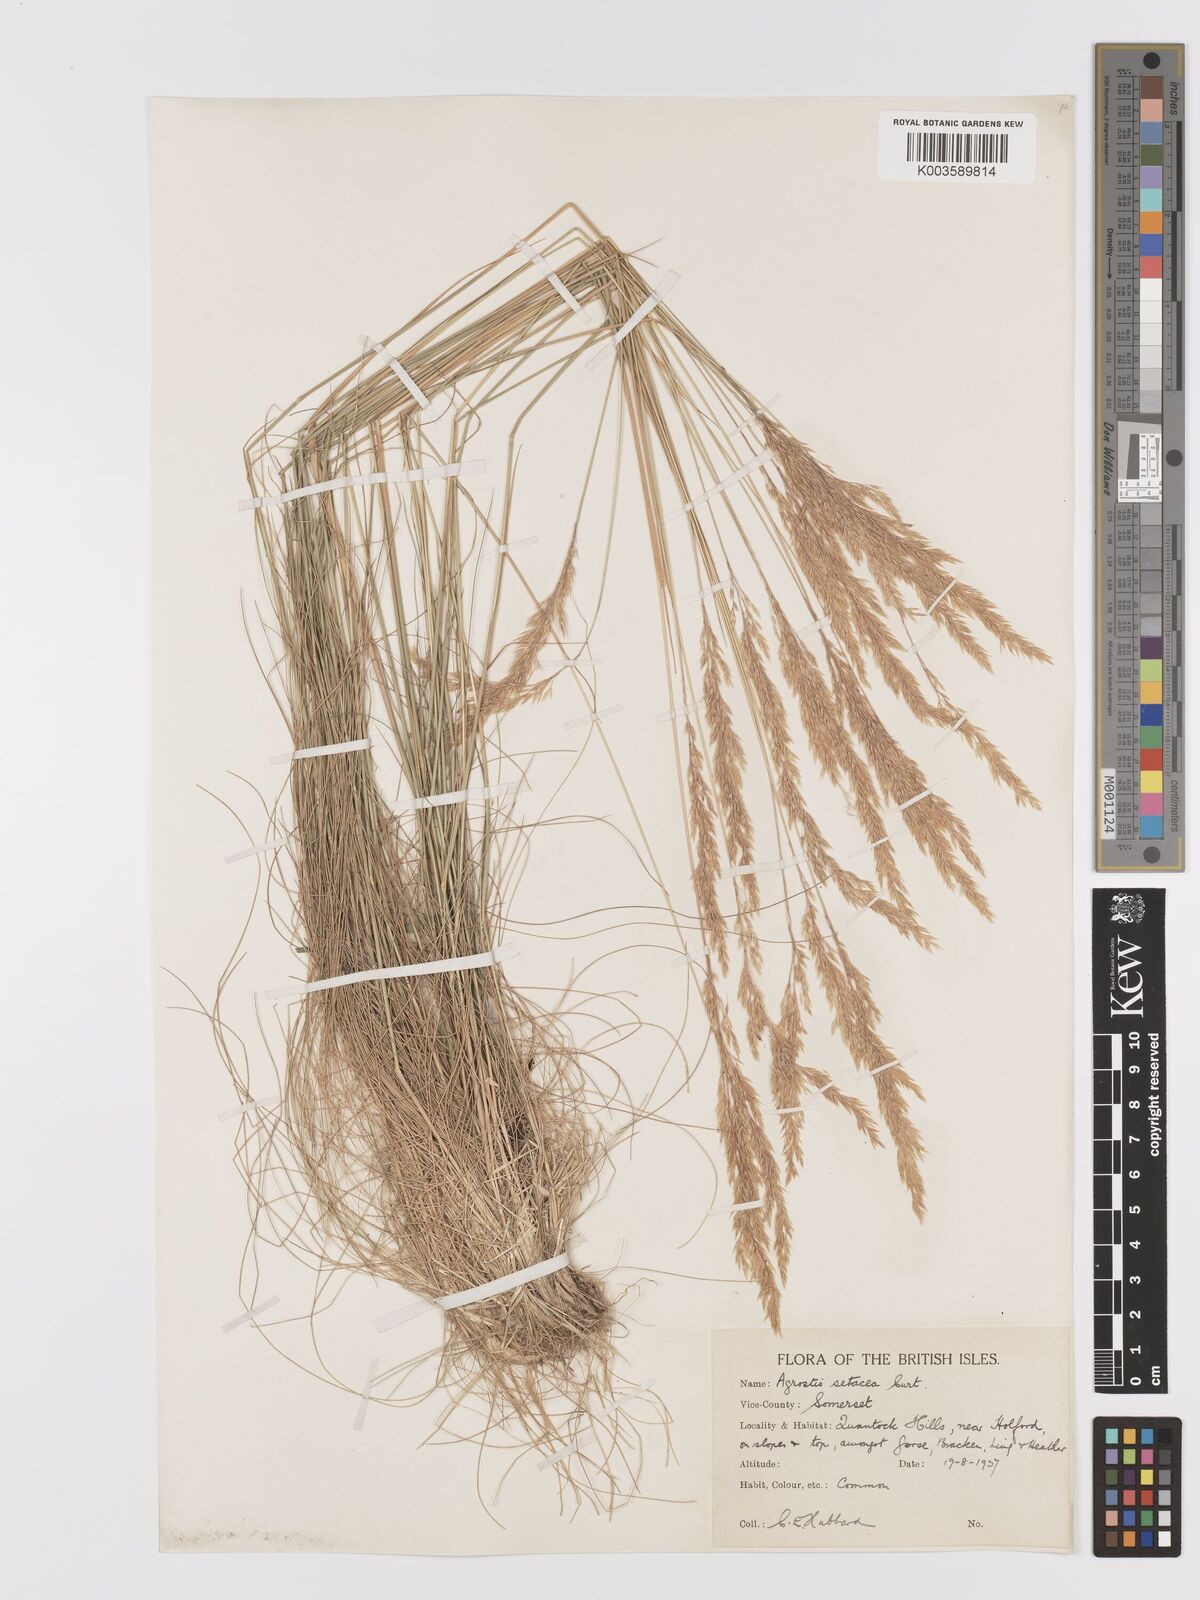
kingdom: Plantae
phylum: Tracheophyta
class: Liliopsida
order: Poales
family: Poaceae
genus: Alpagrostis
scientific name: Alpagrostis setacea
